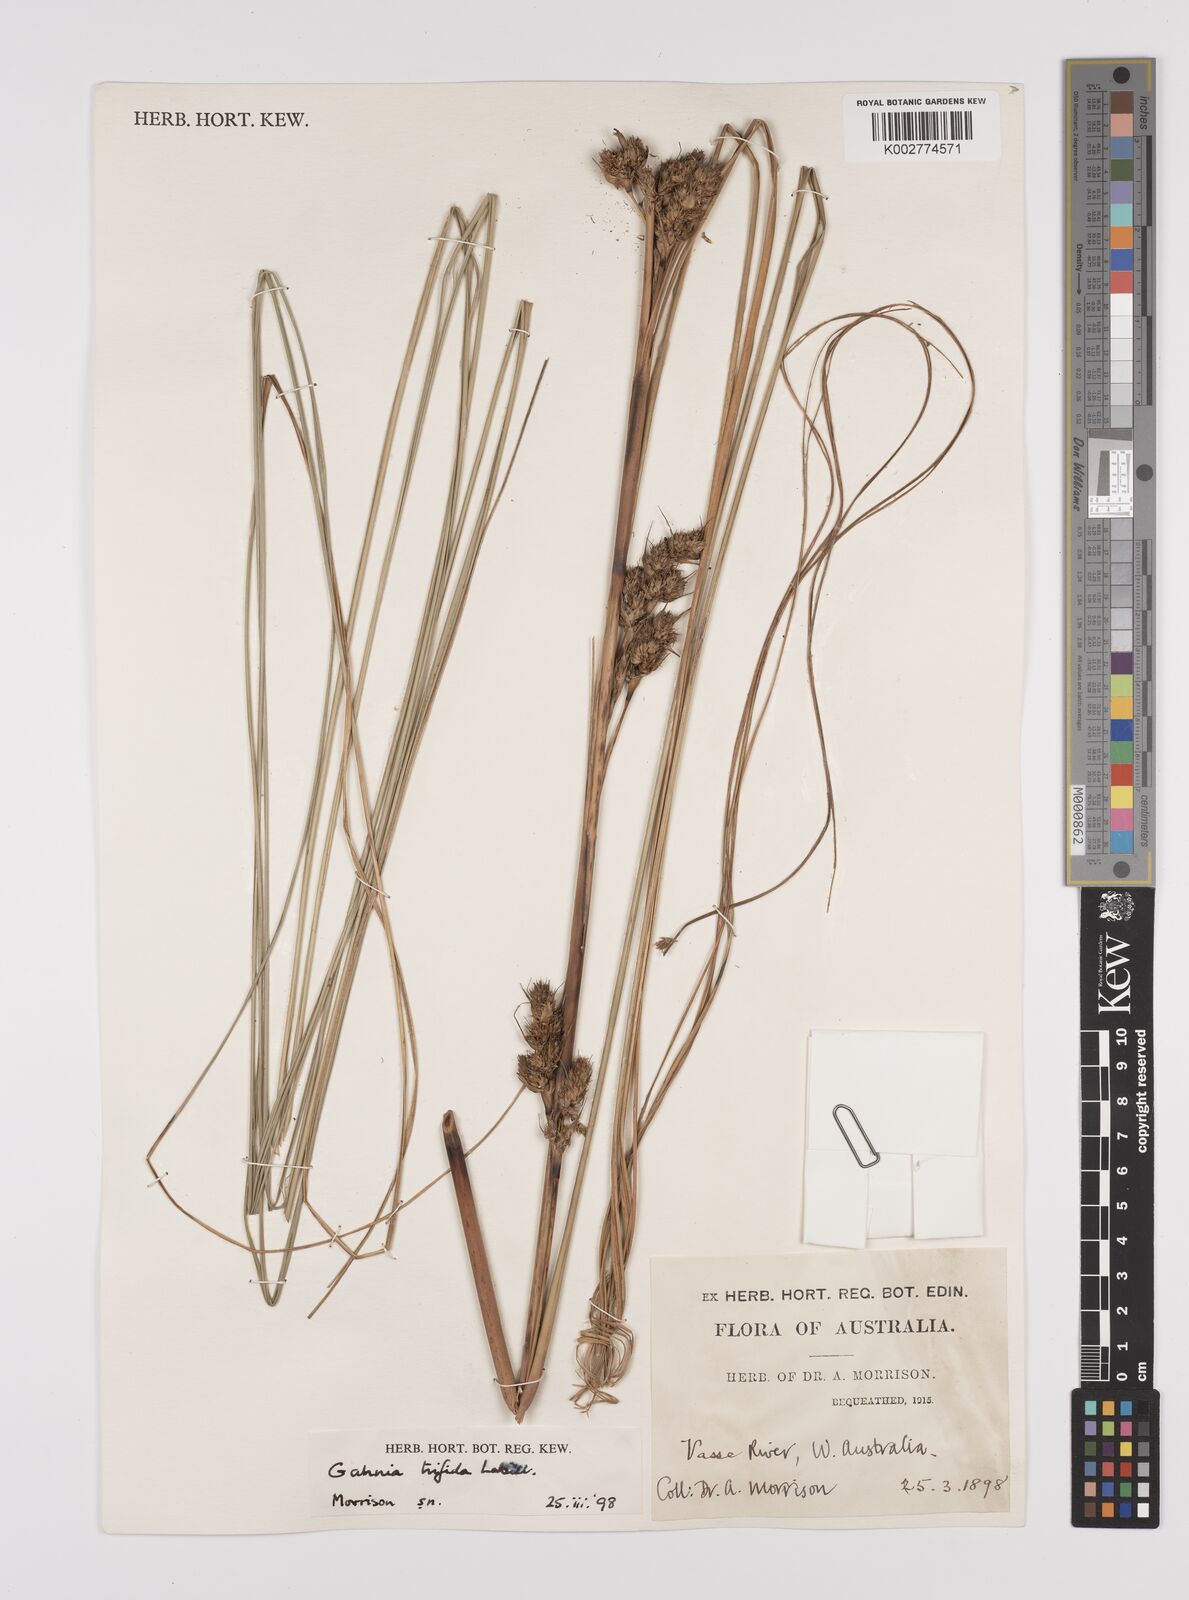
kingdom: Plantae
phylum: Tracheophyta
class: Liliopsida
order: Poales
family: Cyperaceae
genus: Gahnia
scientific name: Gahnia trifida
